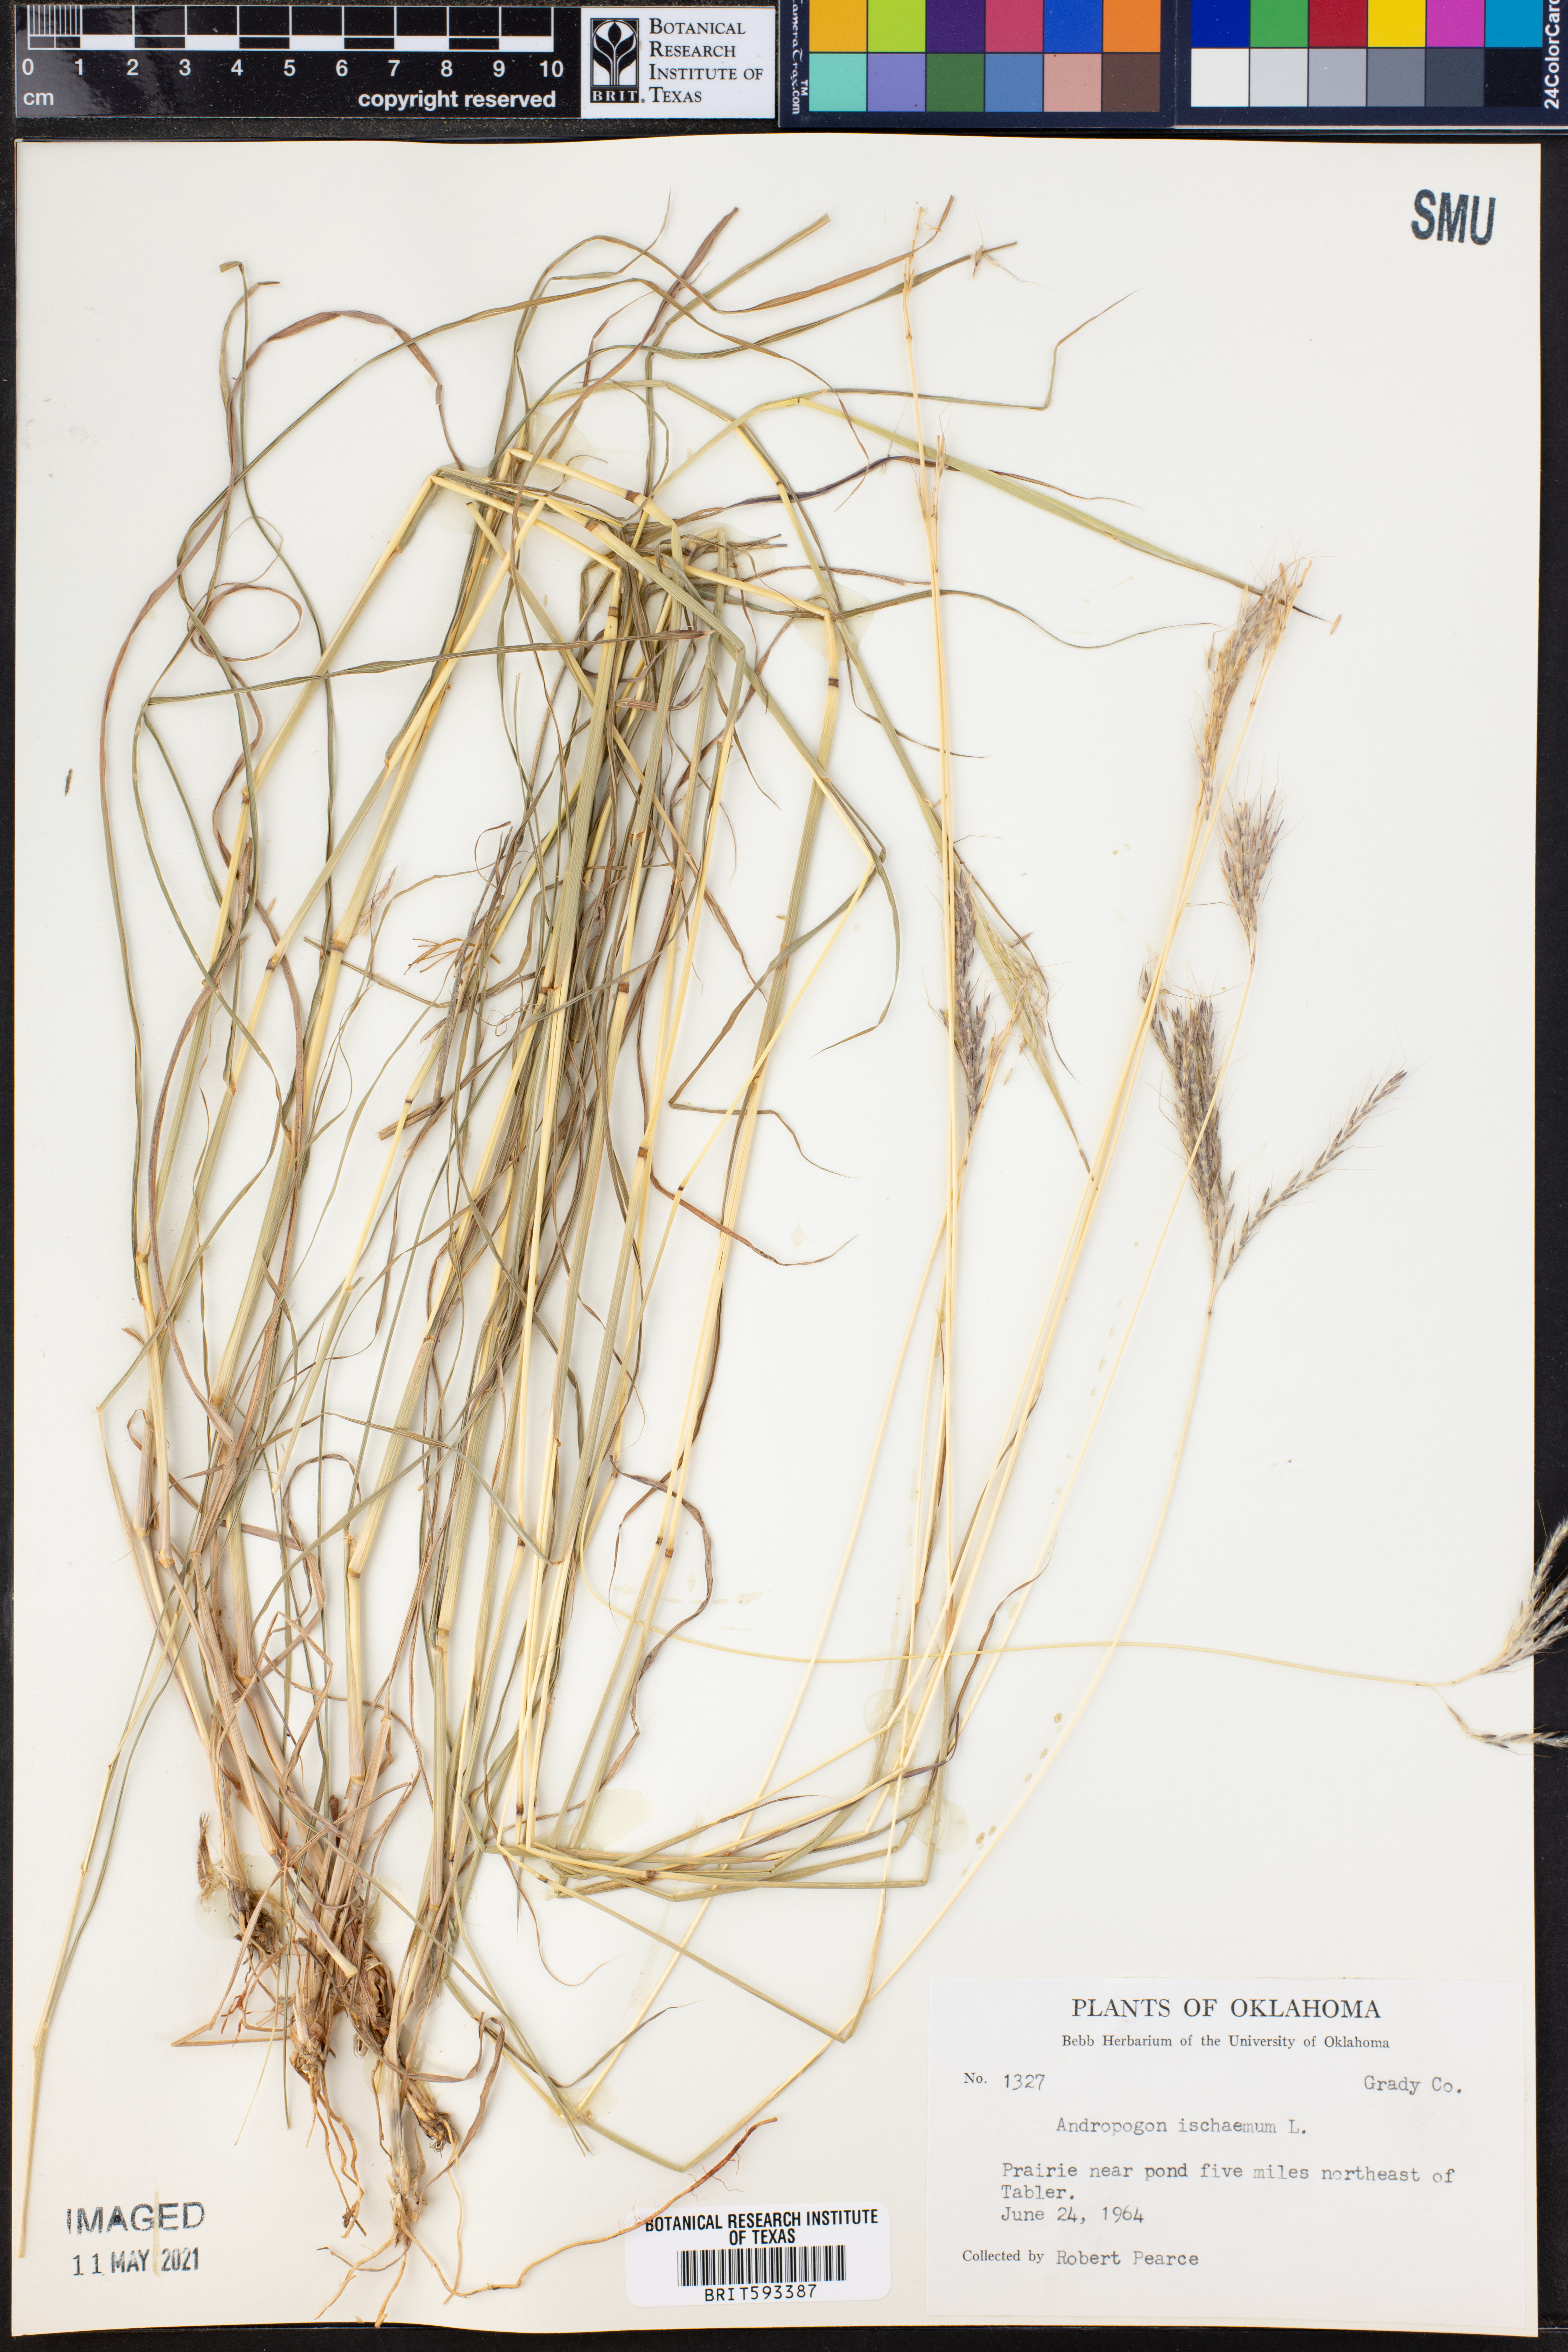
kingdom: Plantae
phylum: Tracheophyta
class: Liliopsida
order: Poales
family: Poaceae
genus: Andropogon
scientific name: Andropogon ischaemum
